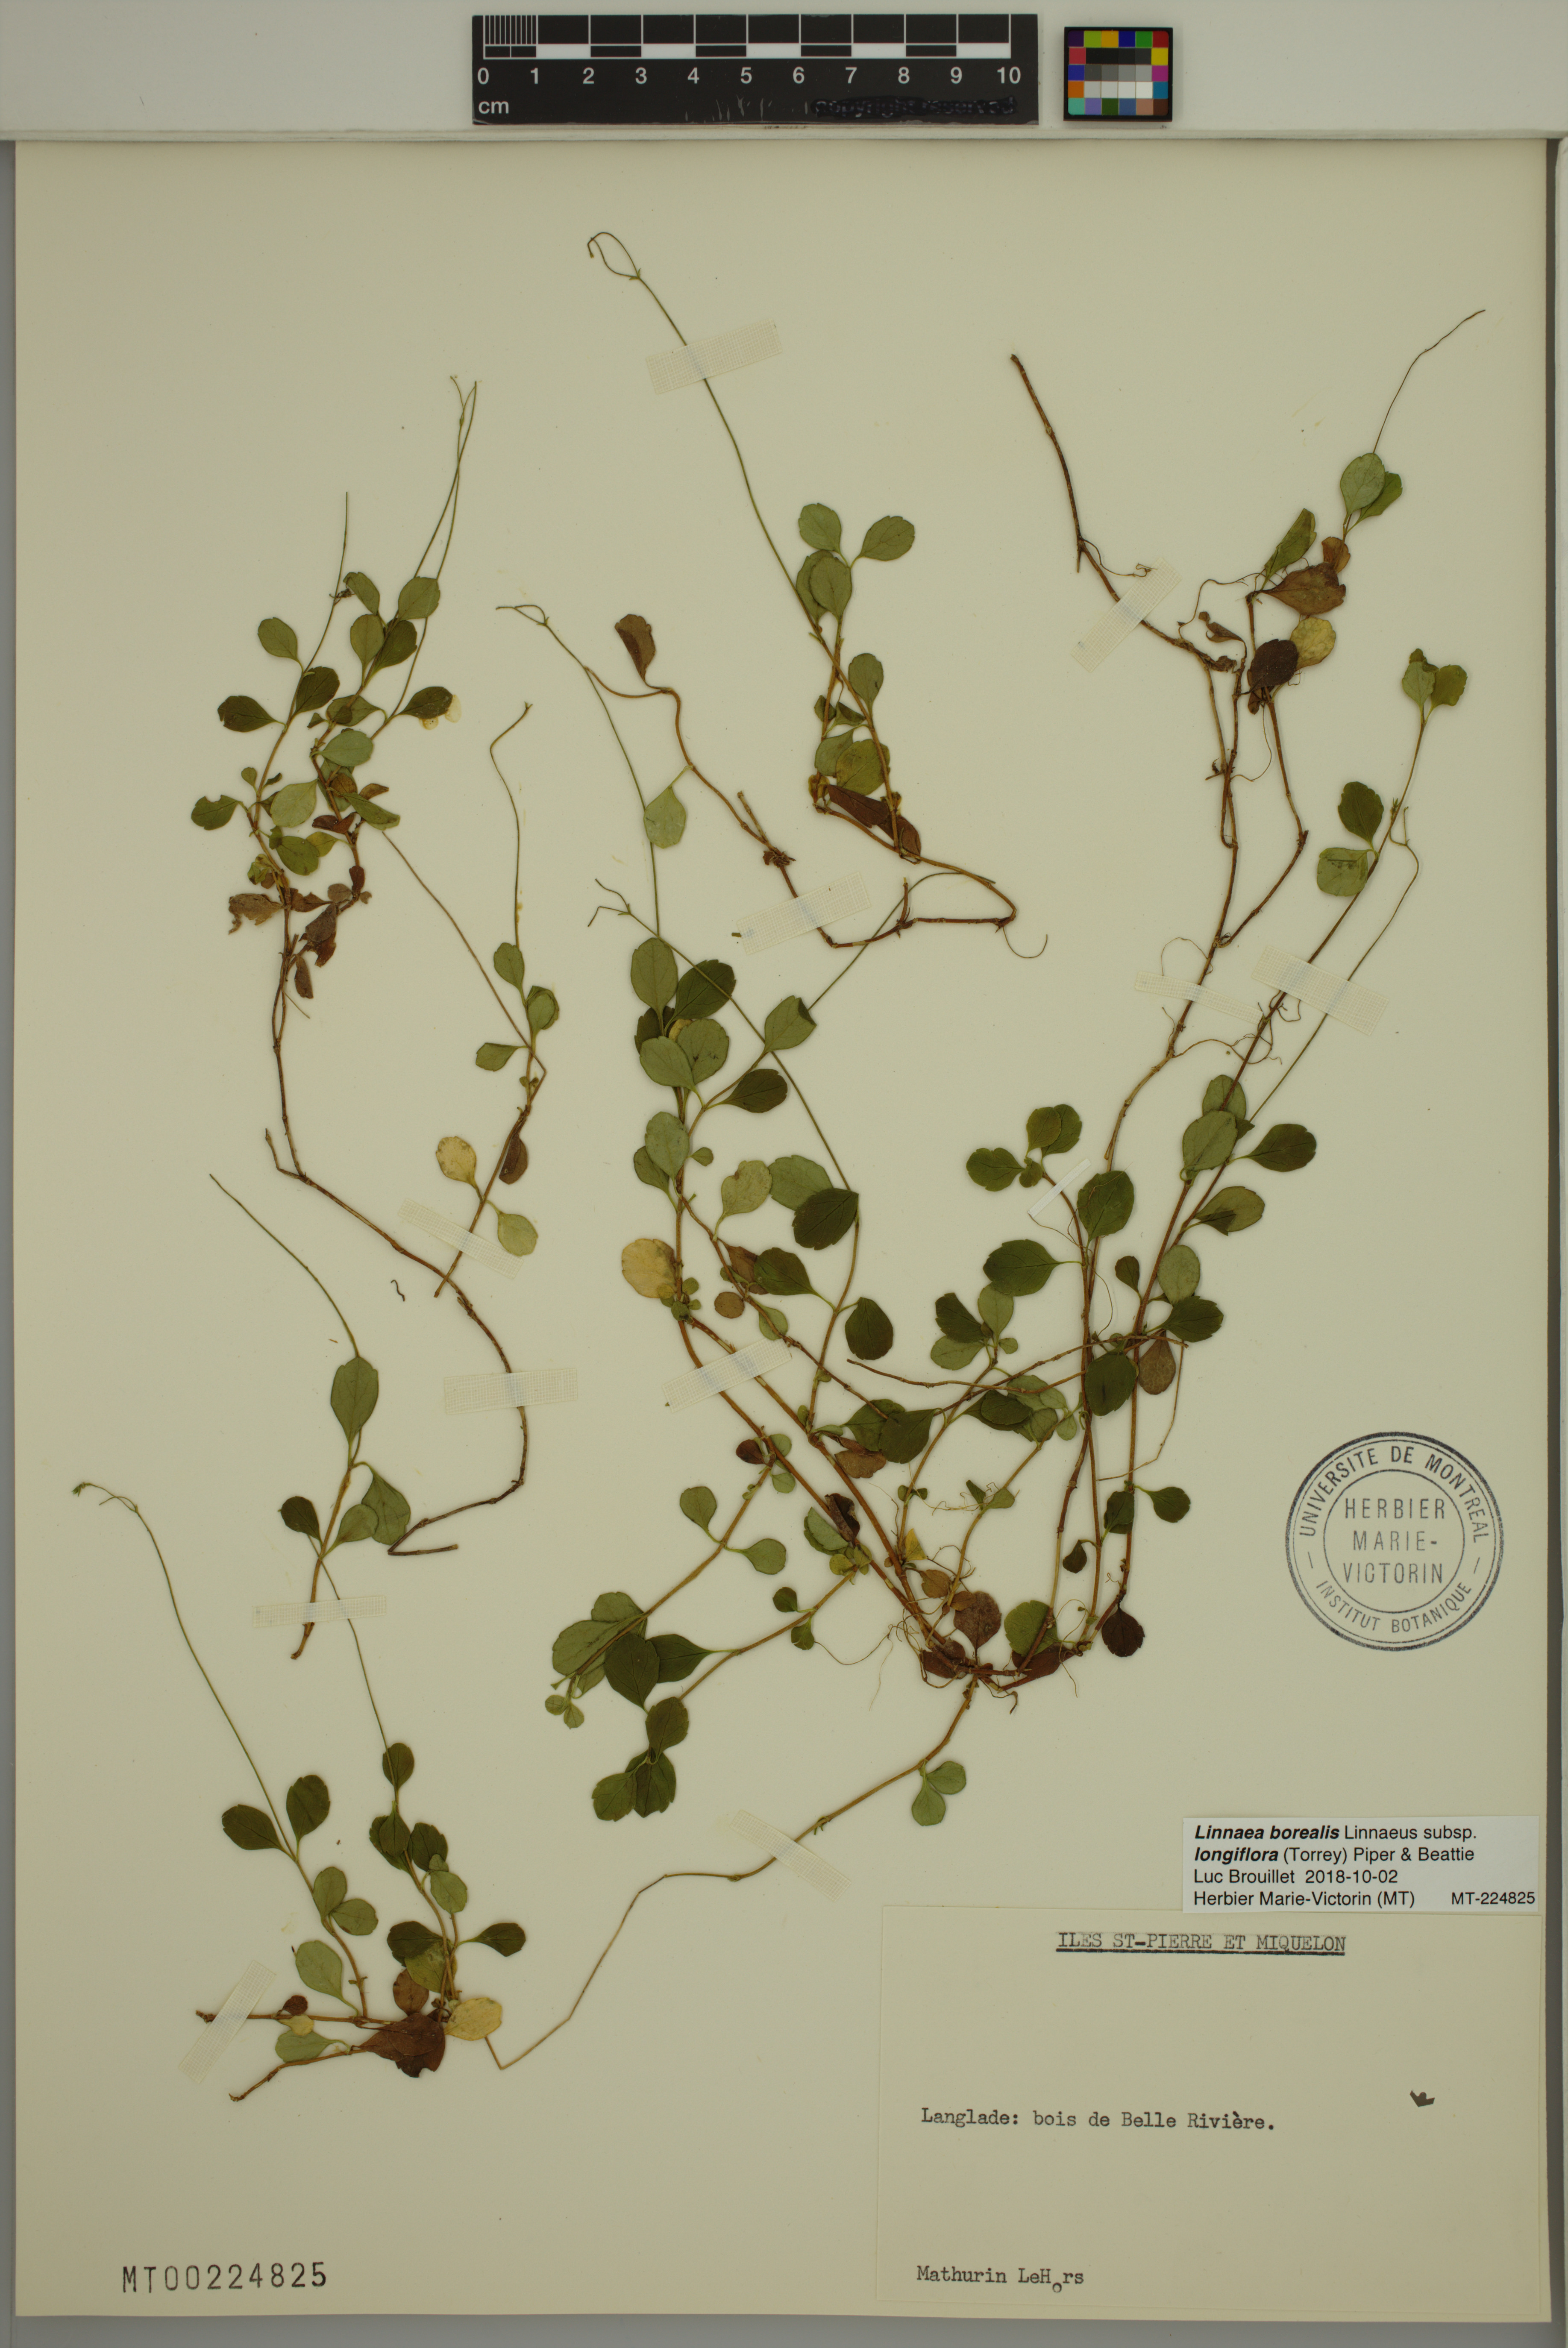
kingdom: Plantae
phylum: Tracheophyta
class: Magnoliopsida
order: Dipsacales
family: Caprifoliaceae
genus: Linnaea
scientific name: Linnaea borealis
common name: Twinflower
